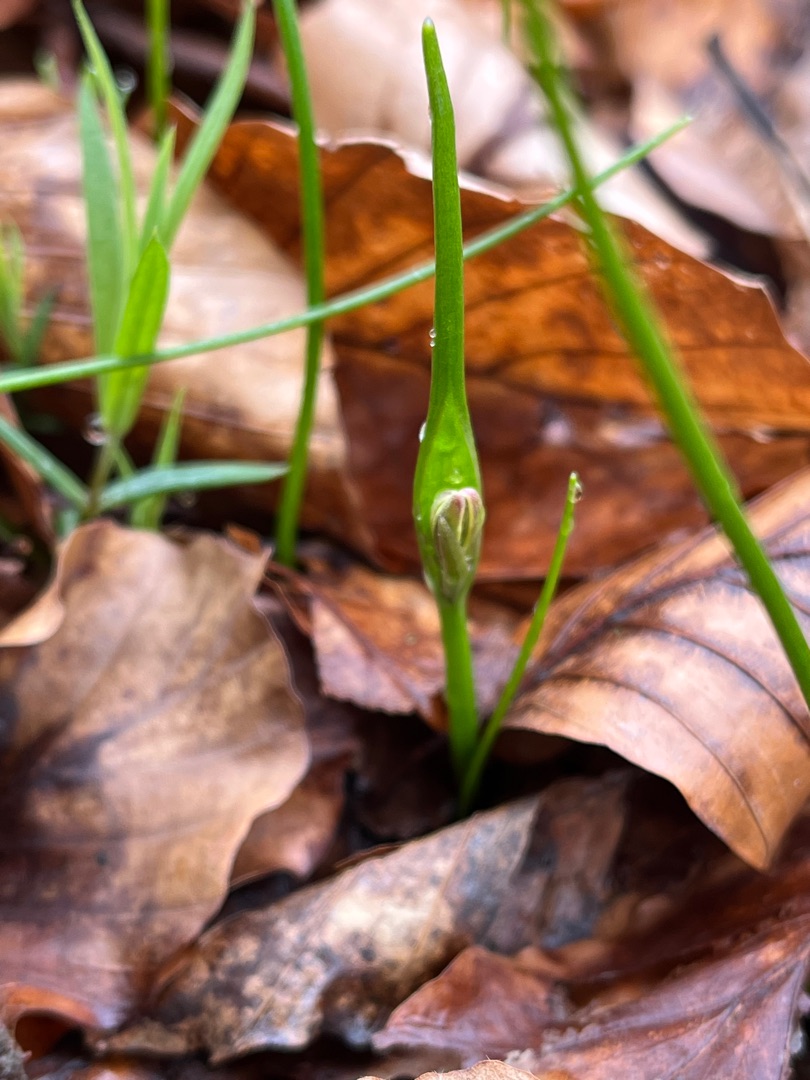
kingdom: Plantae
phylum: Tracheophyta
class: Liliopsida
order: Liliales
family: Liliaceae
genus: Gagea
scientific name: Gagea spathacea
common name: Hylster-guldstjerne
